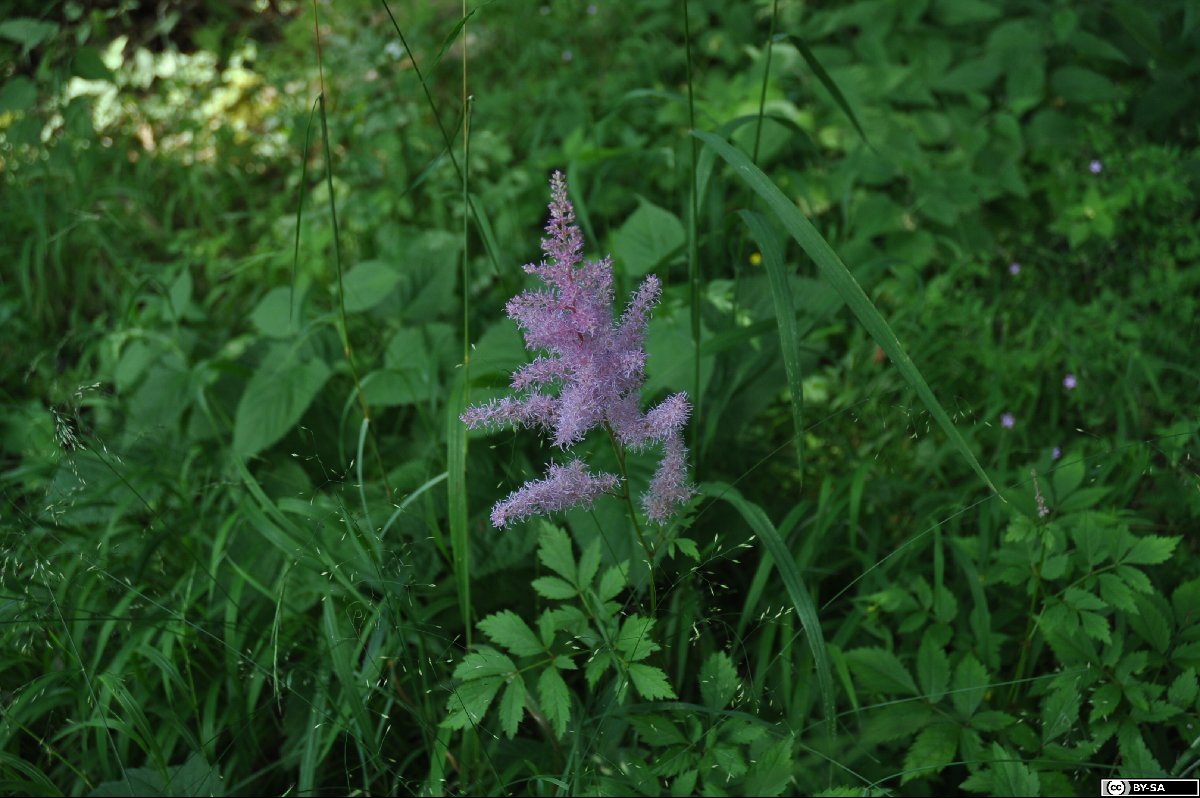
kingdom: Plantae
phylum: Tracheophyta
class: Magnoliopsida
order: Saxifragales
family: Saxifragaceae
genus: Astilbe
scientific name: Astilbe rubra
